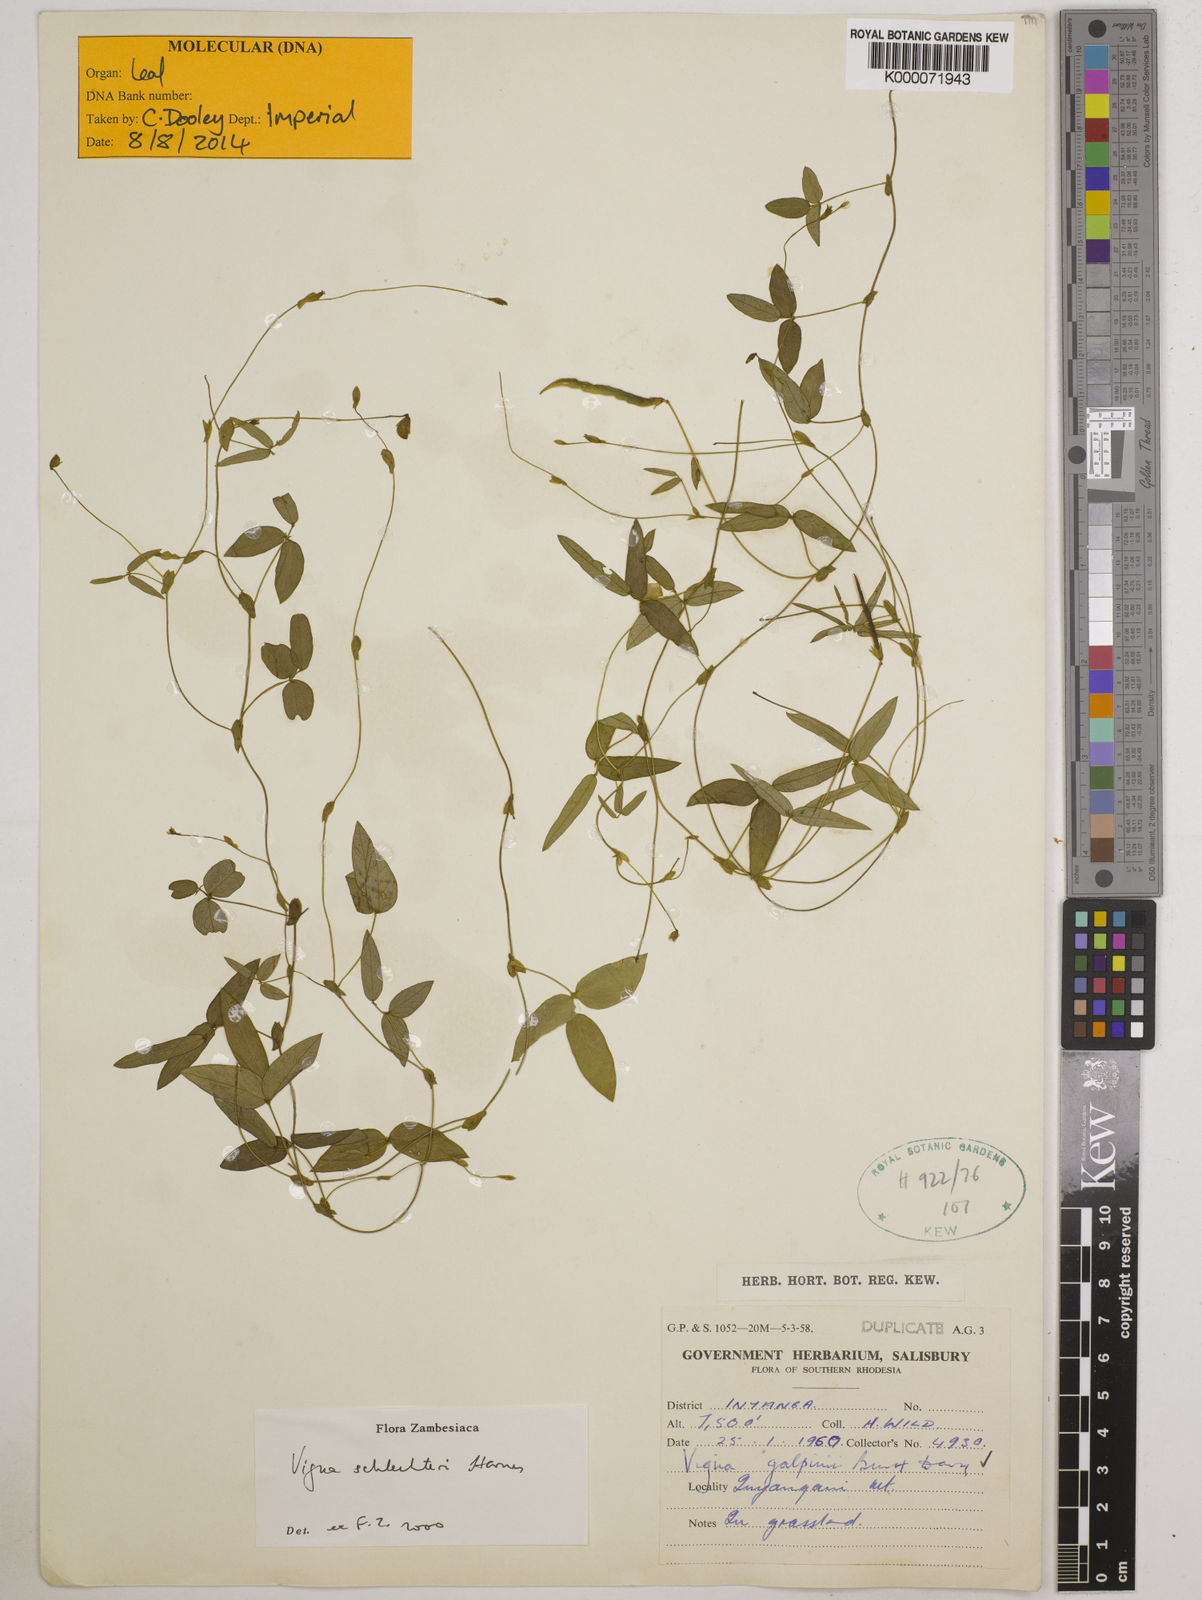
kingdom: Plantae
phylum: Tracheophyta
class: Magnoliopsida
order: Fabales
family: Fabaceae
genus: Vigna
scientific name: Vigna schlechteri
